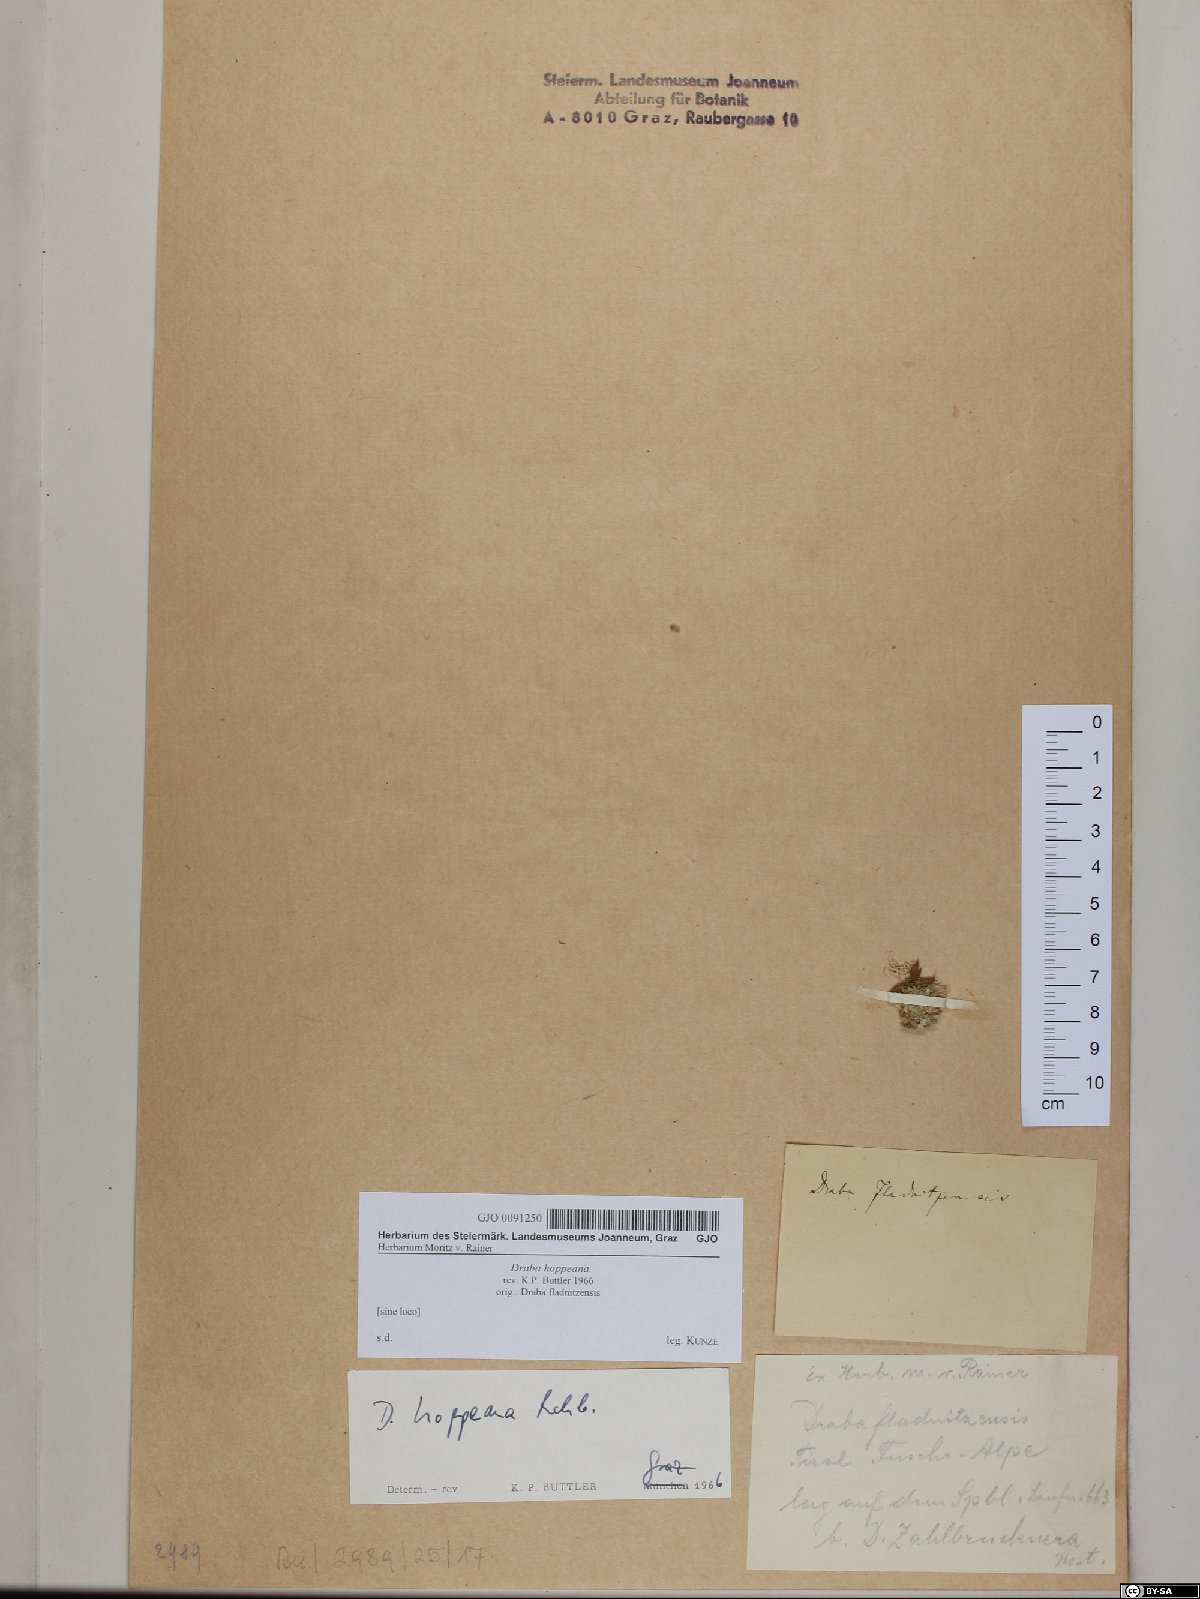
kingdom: Plantae
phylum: Tracheophyta
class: Magnoliopsida
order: Brassicales
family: Brassicaceae
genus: Draba
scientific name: Draba hoppeana
